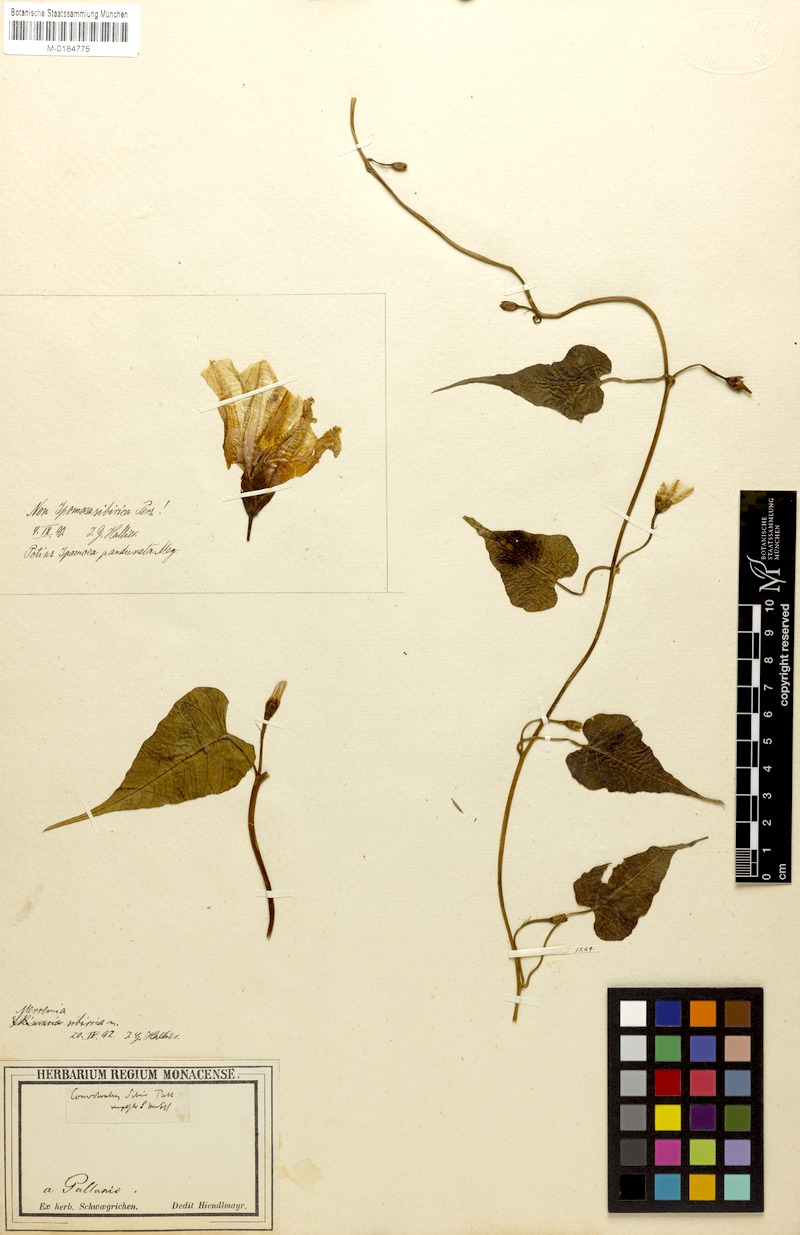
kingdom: Plantae
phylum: Tracheophyta
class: Magnoliopsida
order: Solanales
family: Convolvulaceae
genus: Merremia
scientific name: Merremia sibirica
